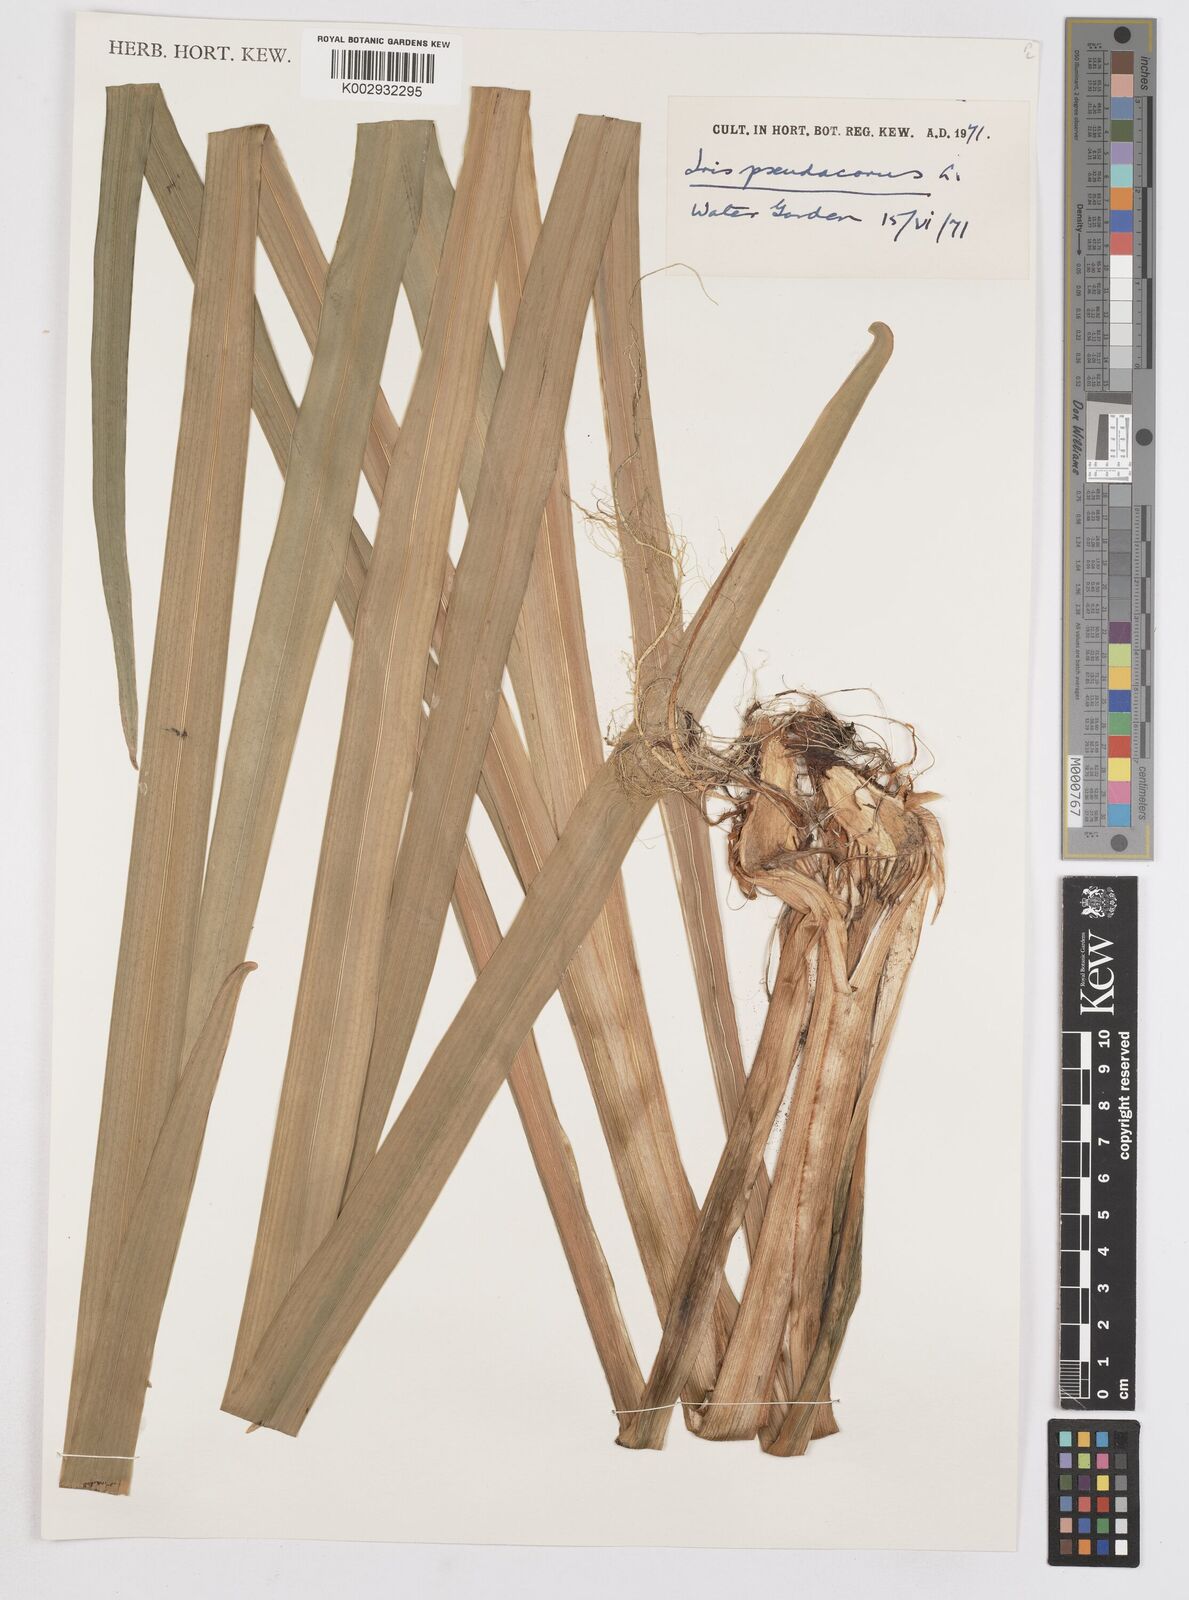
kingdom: Plantae
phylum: Tracheophyta
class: Liliopsida
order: Asparagales
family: Iridaceae
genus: Iris
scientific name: Iris pseudacorus
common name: Yellow flag
